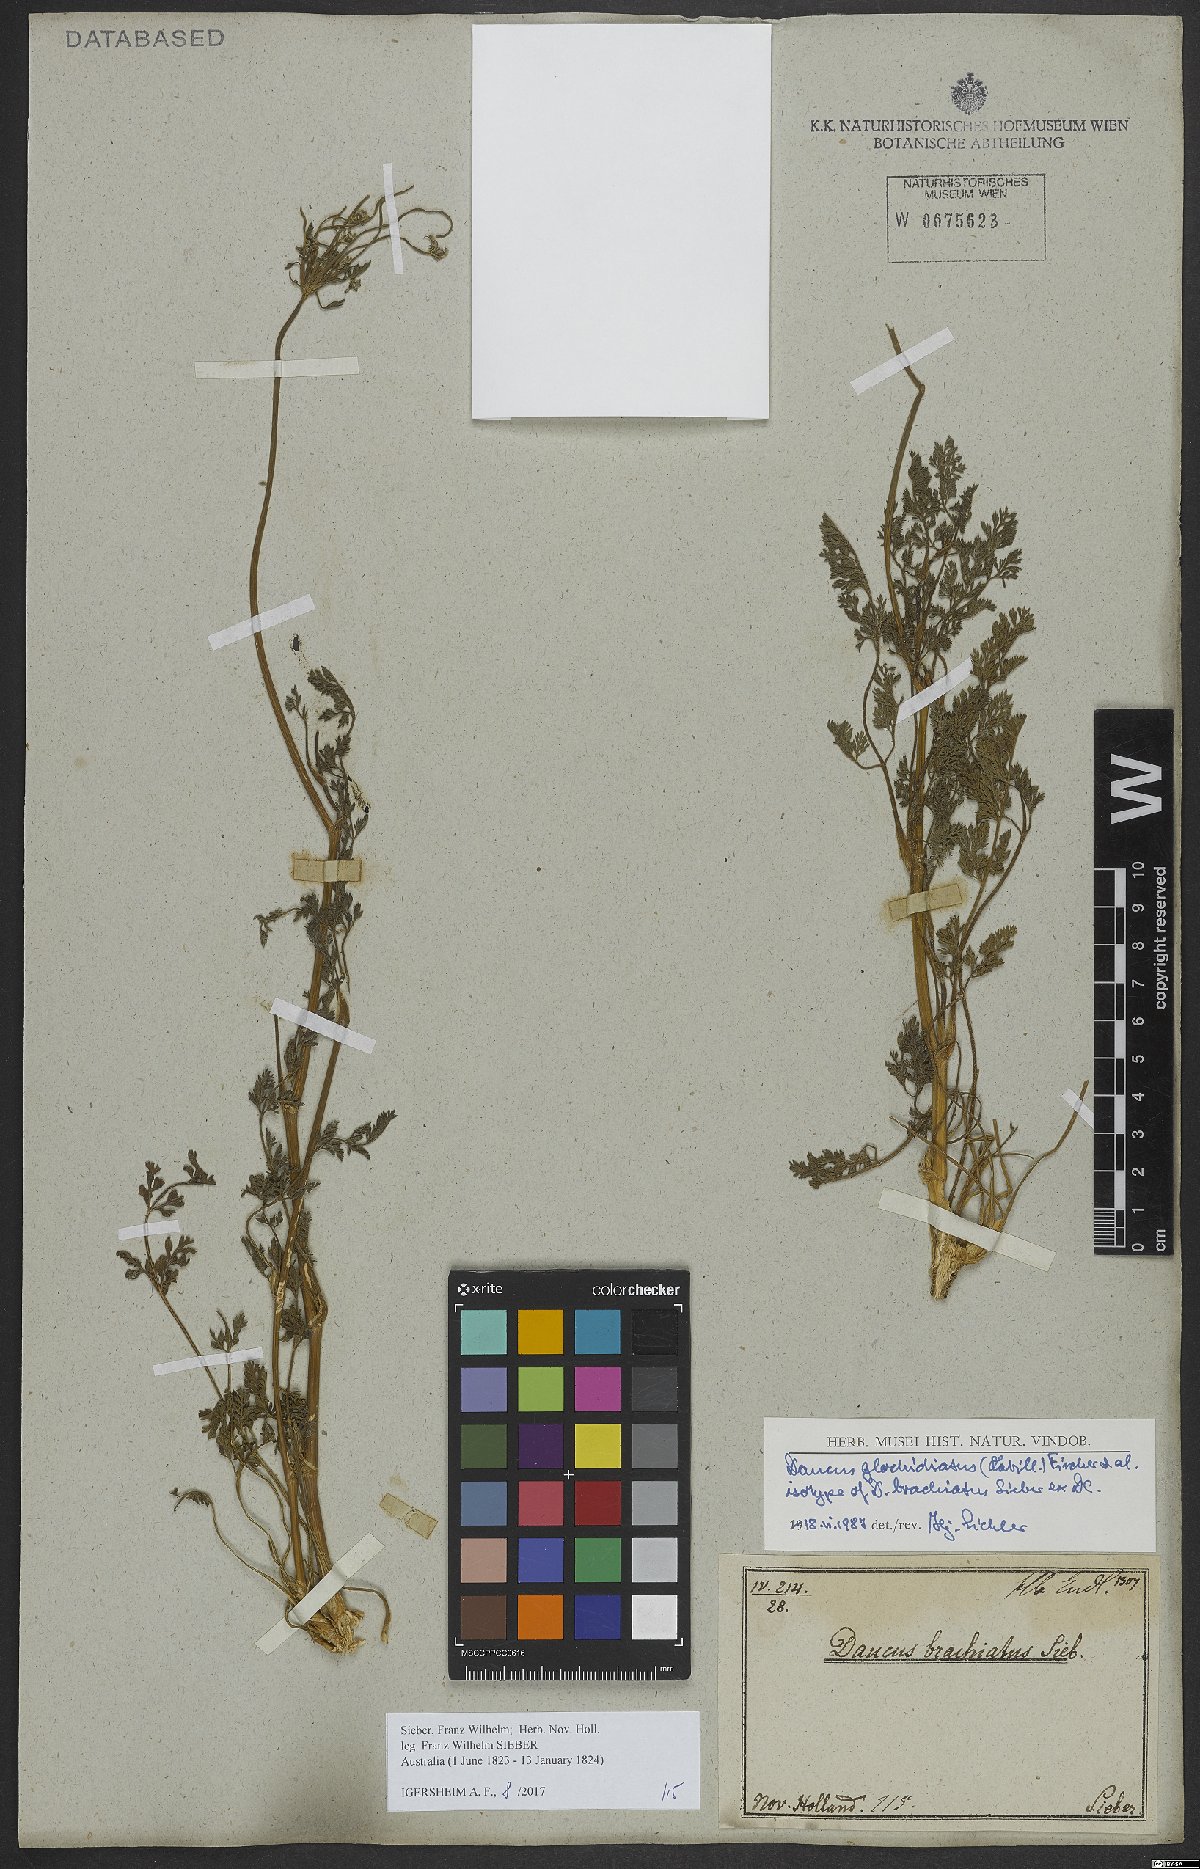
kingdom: Plantae
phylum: Tracheophyta
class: Magnoliopsida
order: Apiales
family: Apiaceae
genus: Daucus
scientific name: Daucus glochidiatus
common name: Australian carrot
